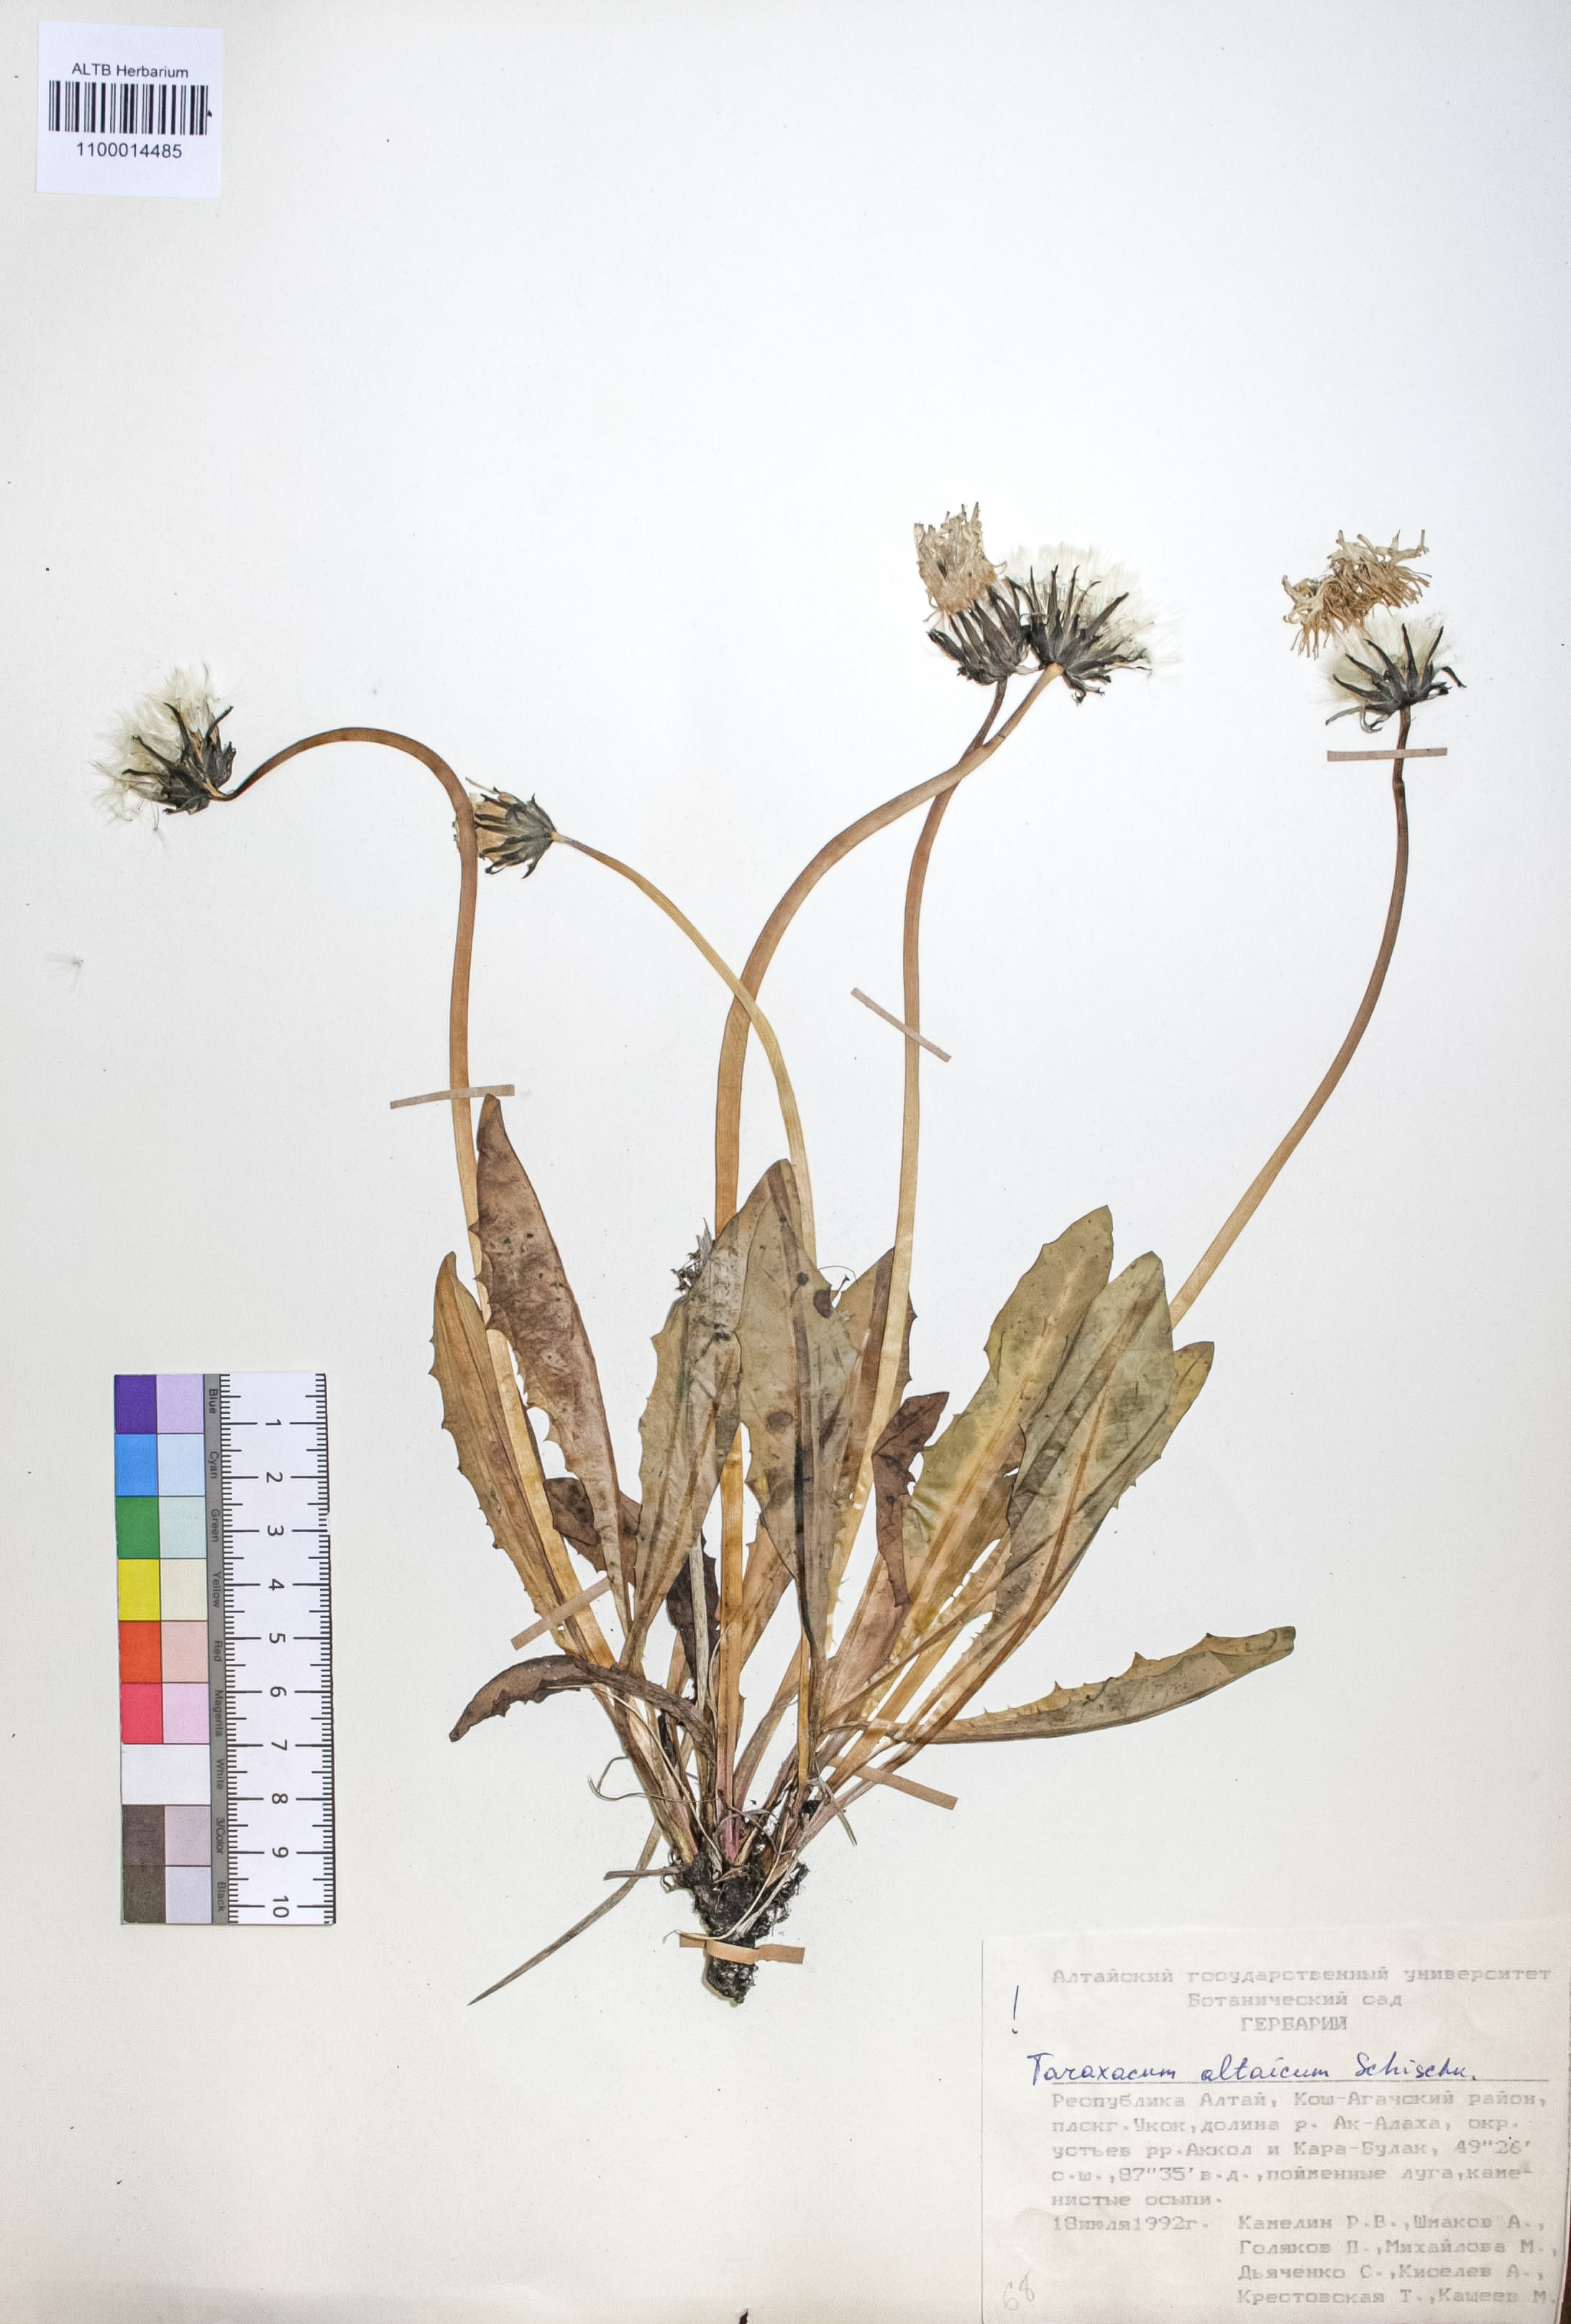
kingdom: Plantae
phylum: Tracheophyta
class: Magnoliopsida
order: Asterales
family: Asteraceae
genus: Taraxacum
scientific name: Taraxacum ceratophorum
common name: Horn-bearing dandelion
